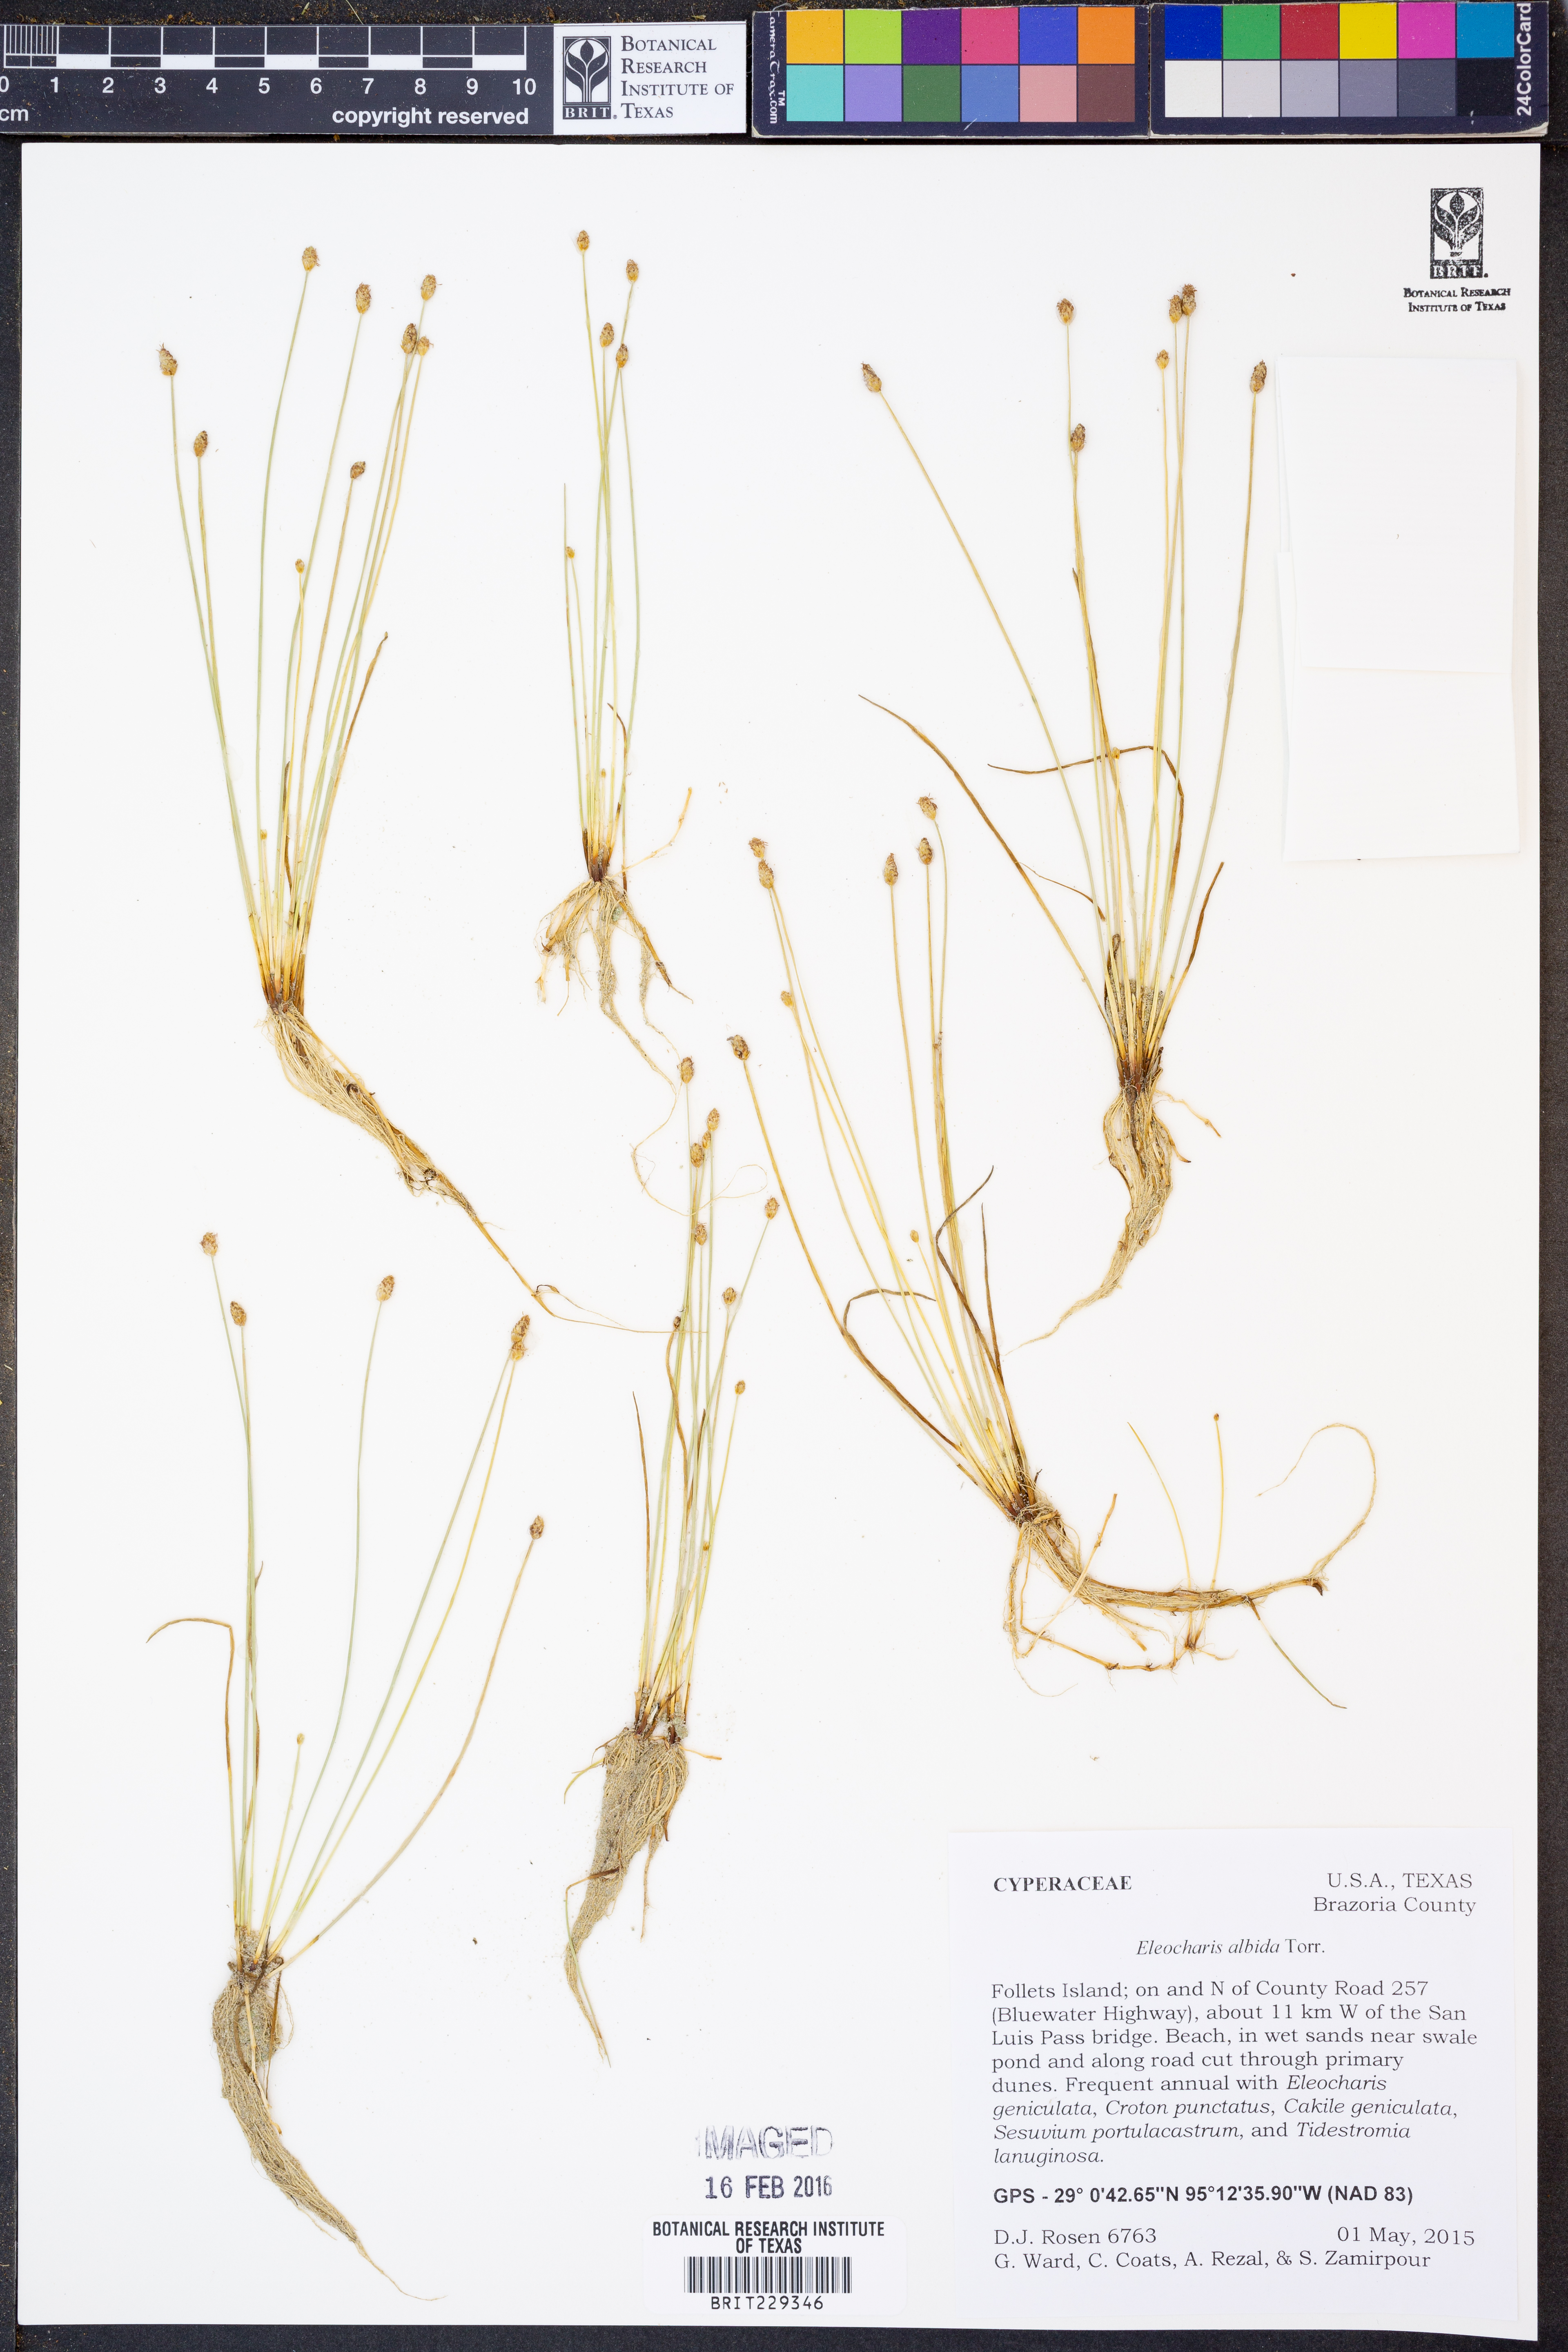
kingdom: Plantae
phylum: Tracheophyta
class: Liliopsida
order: Poales
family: Cyperaceae
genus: Eleocharis
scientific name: Eleocharis albida
